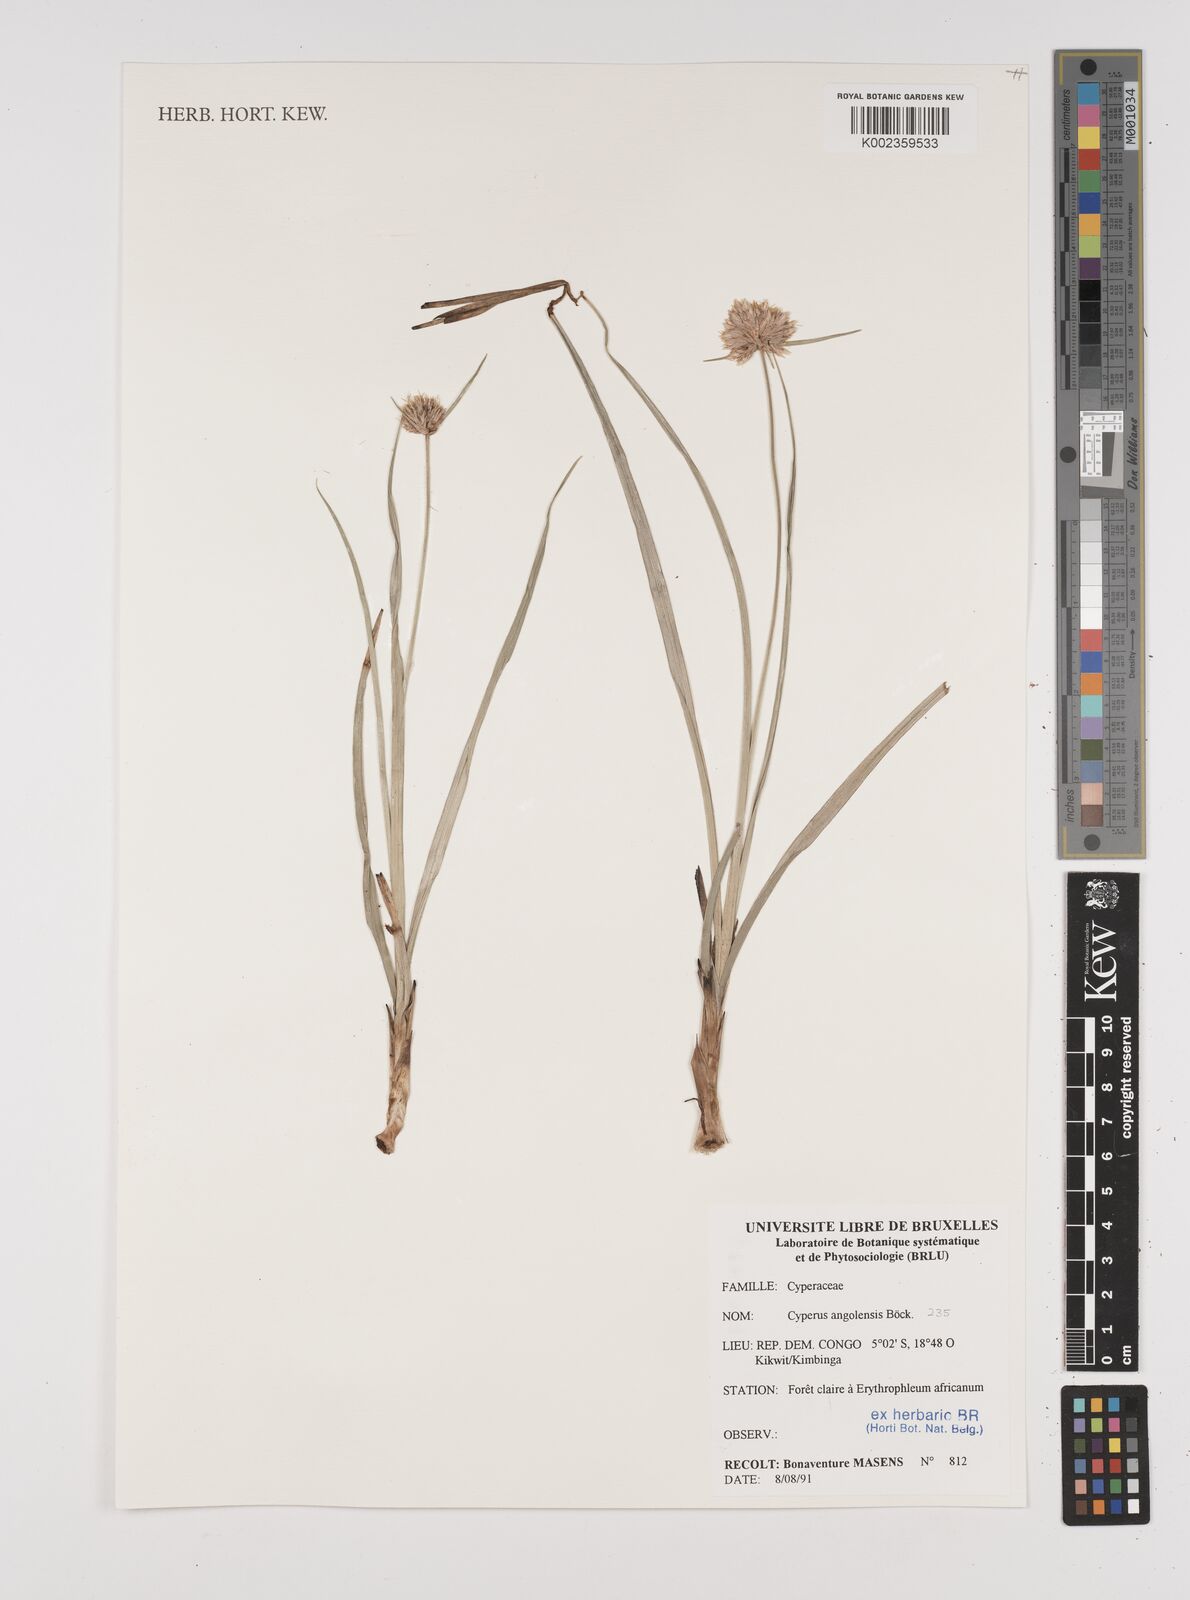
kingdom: Plantae
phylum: Tracheophyta
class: Liliopsida
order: Poales
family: Cyperaceae
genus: Cyperus
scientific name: Cyperus angolensis
